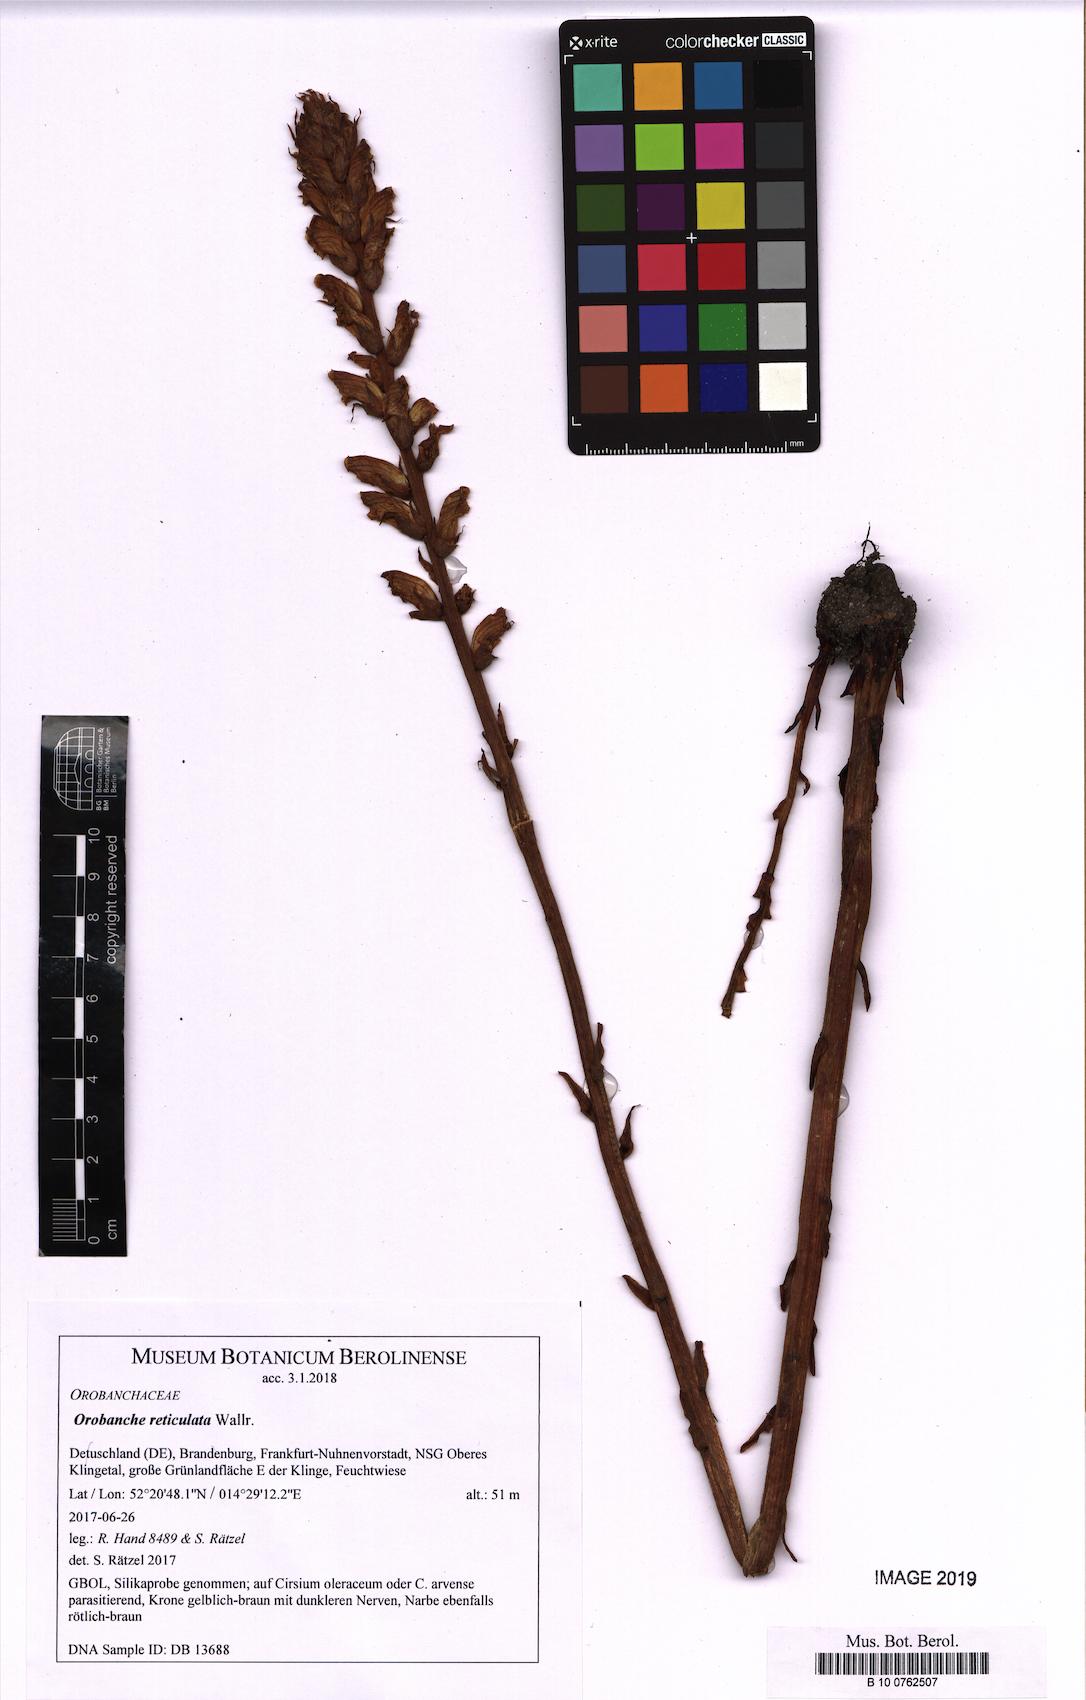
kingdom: Plantae
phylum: Tracheophyta
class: Magnoliopsida
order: Lamiales
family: Orobanchaceae
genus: Orobanche
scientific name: Orobanche reticulata
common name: Thistle broomrape
